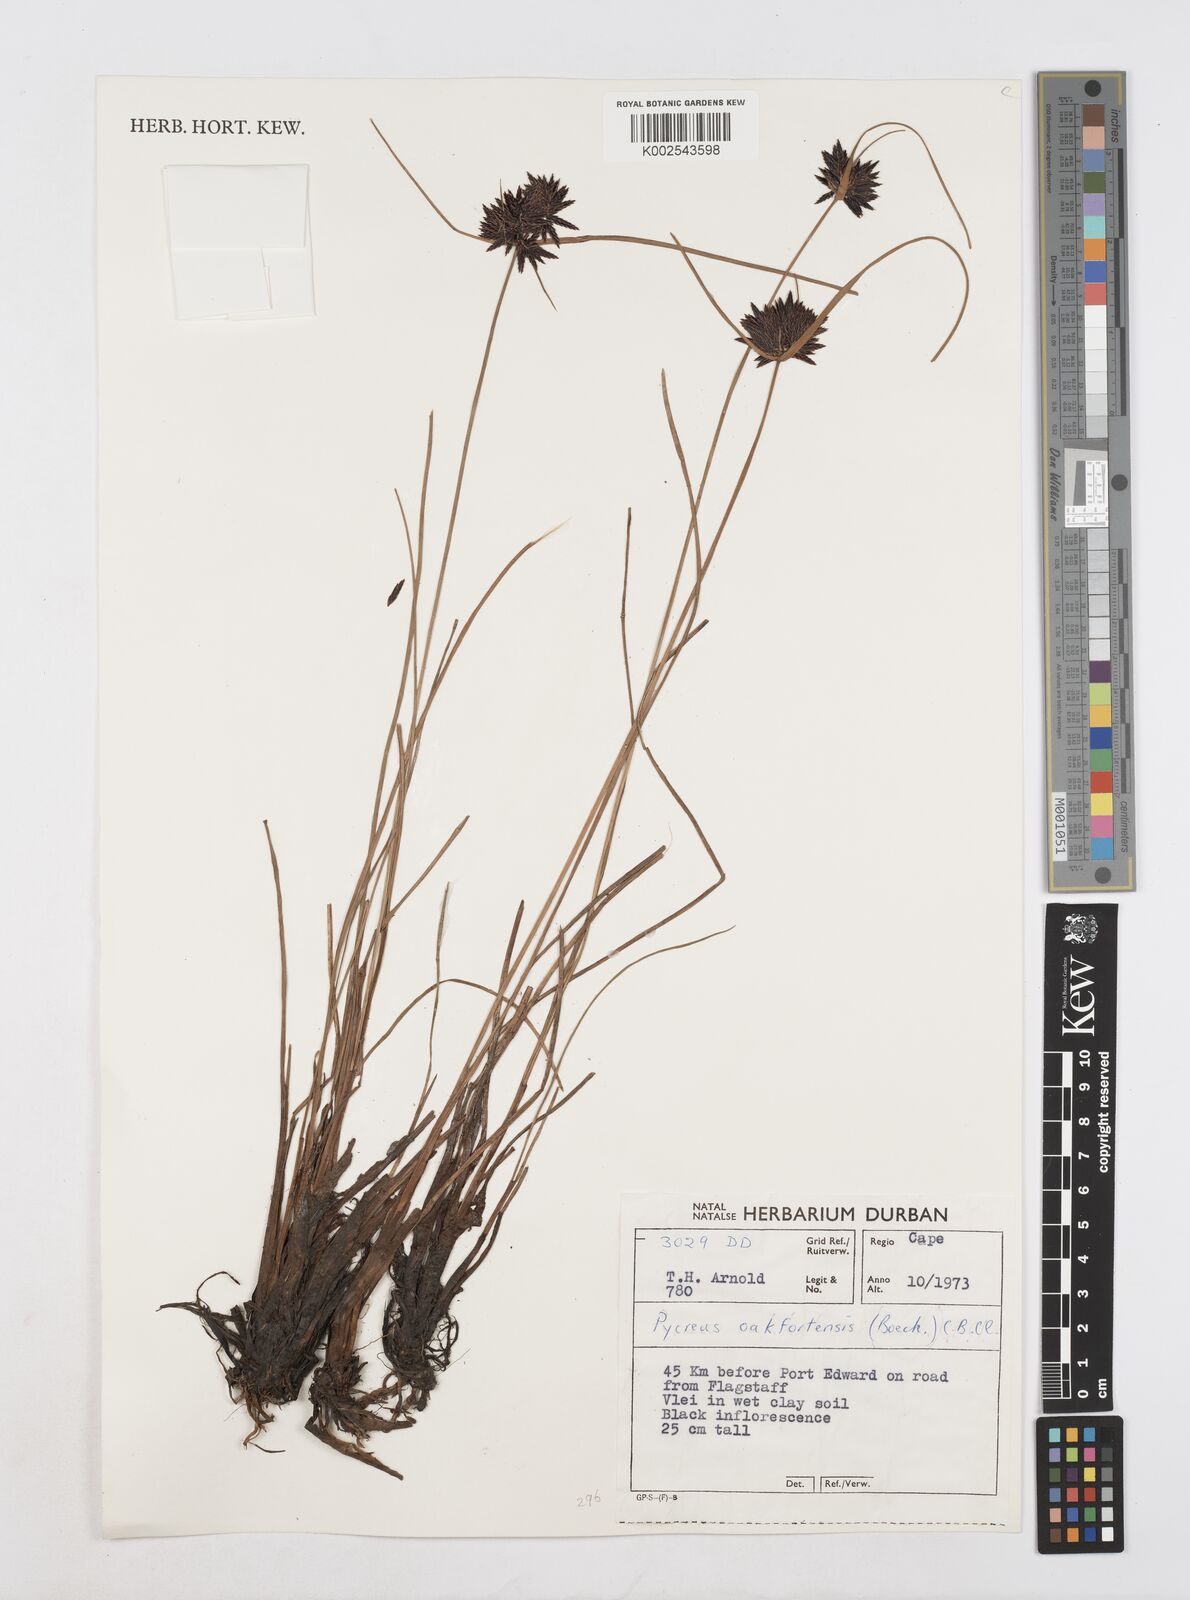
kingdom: Plantae
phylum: Tracheophyta
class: Liliopsida
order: Poales
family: Cyperaceae
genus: Cyperus
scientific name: Cyperus oakfortensis
